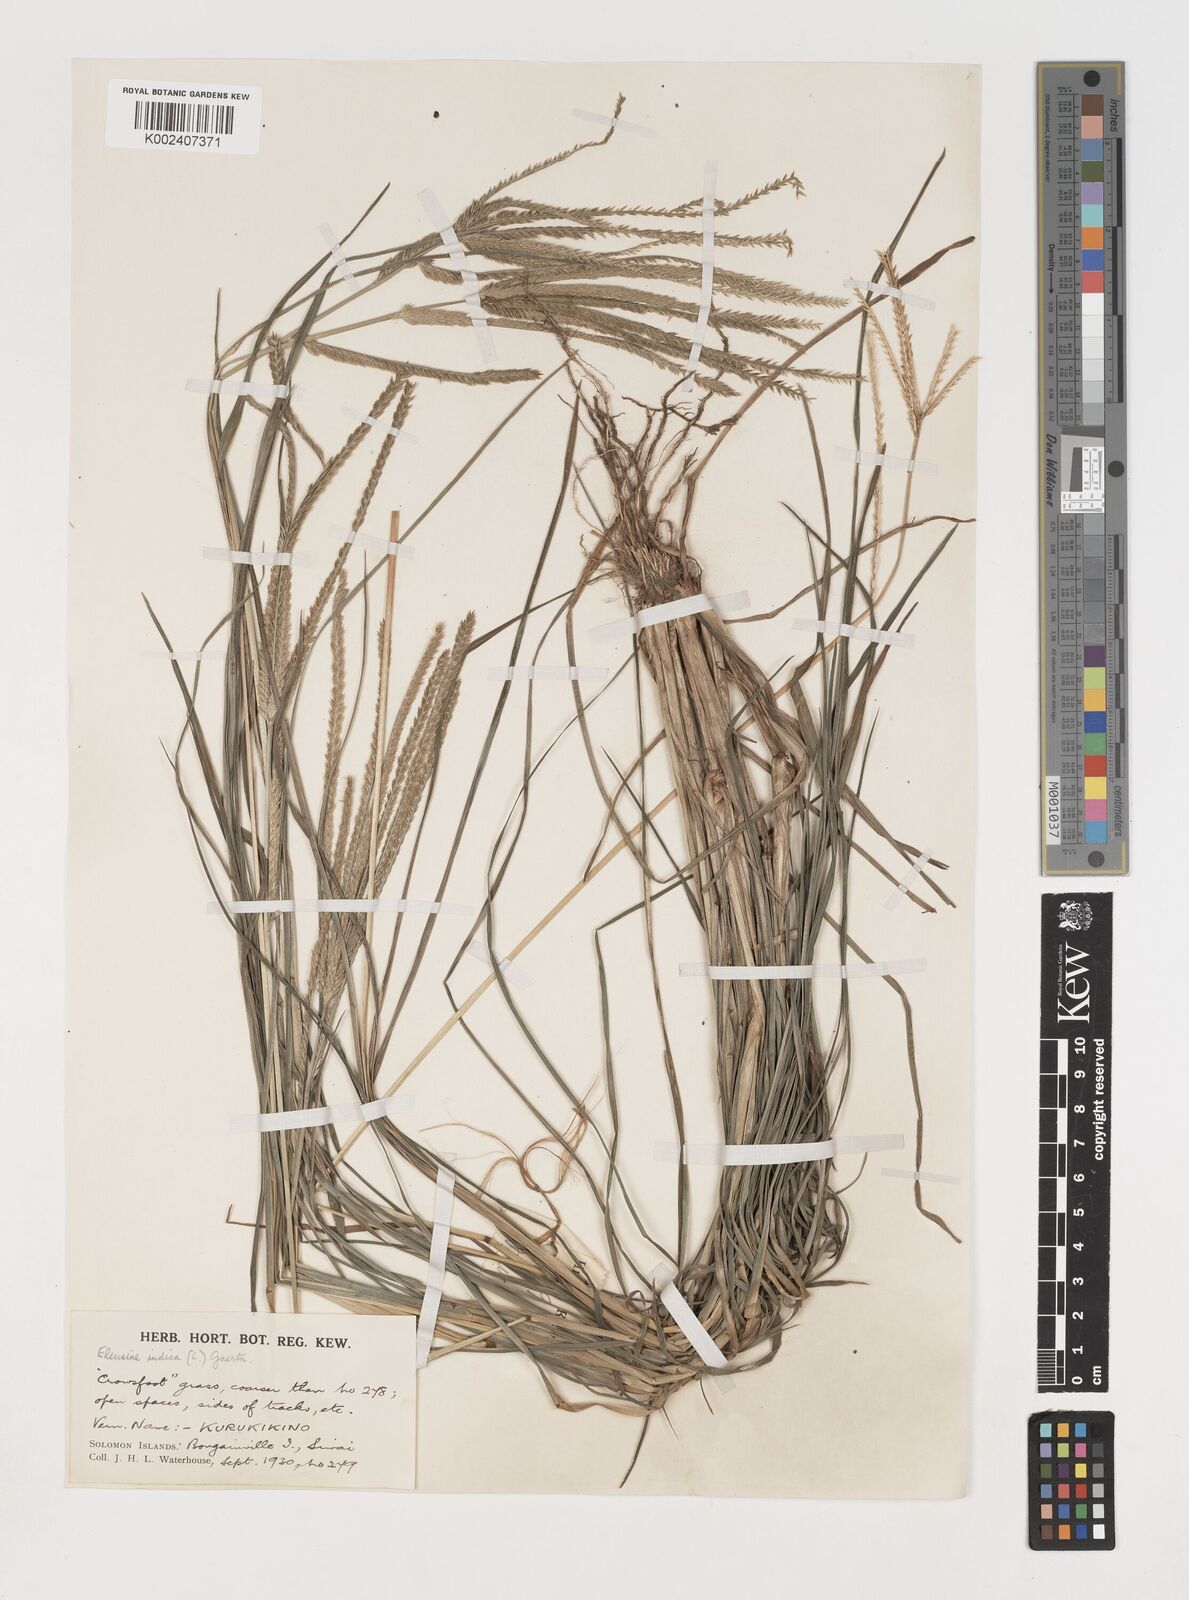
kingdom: Plantae
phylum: Tracheophyta
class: Liliopsida
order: Poales
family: Poaceae
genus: Eleusine
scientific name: Eleusine indica
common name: Yard-grass
